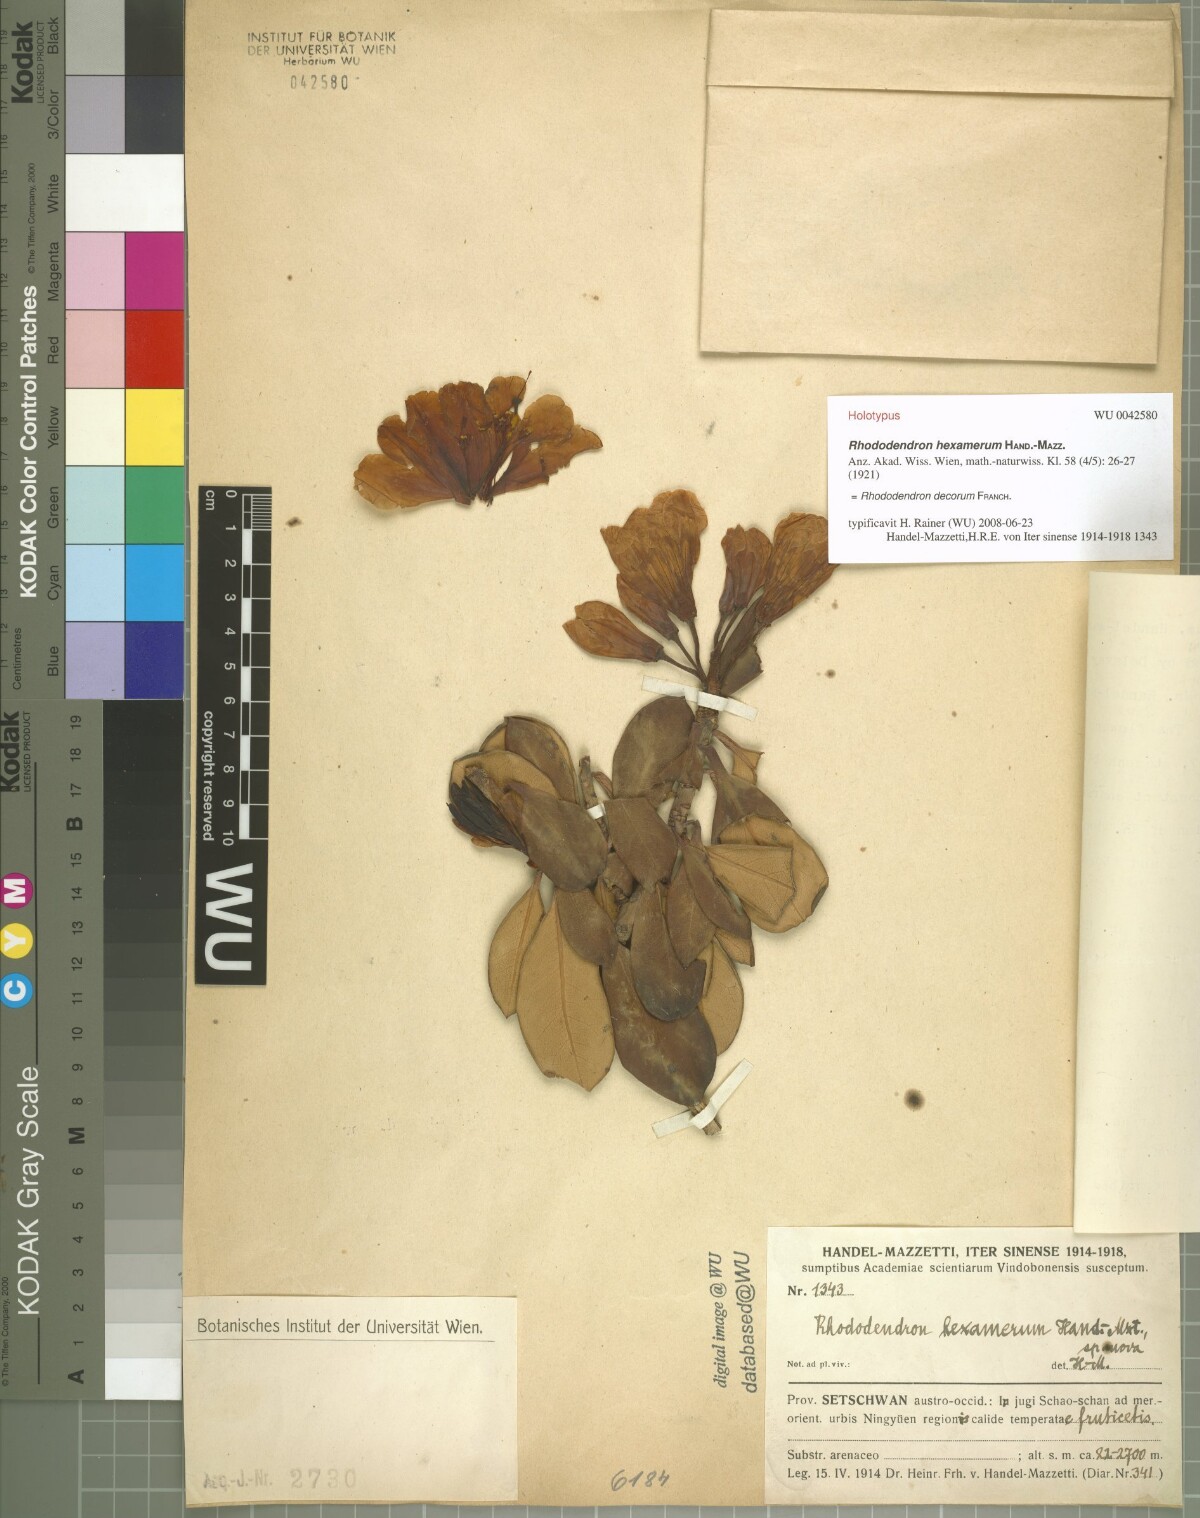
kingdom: Plantae
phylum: Tracheophyta
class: Magnoliopsida
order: Ericales
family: Ericaceae
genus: Rhododendron
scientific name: Rhododendron vernicosum
